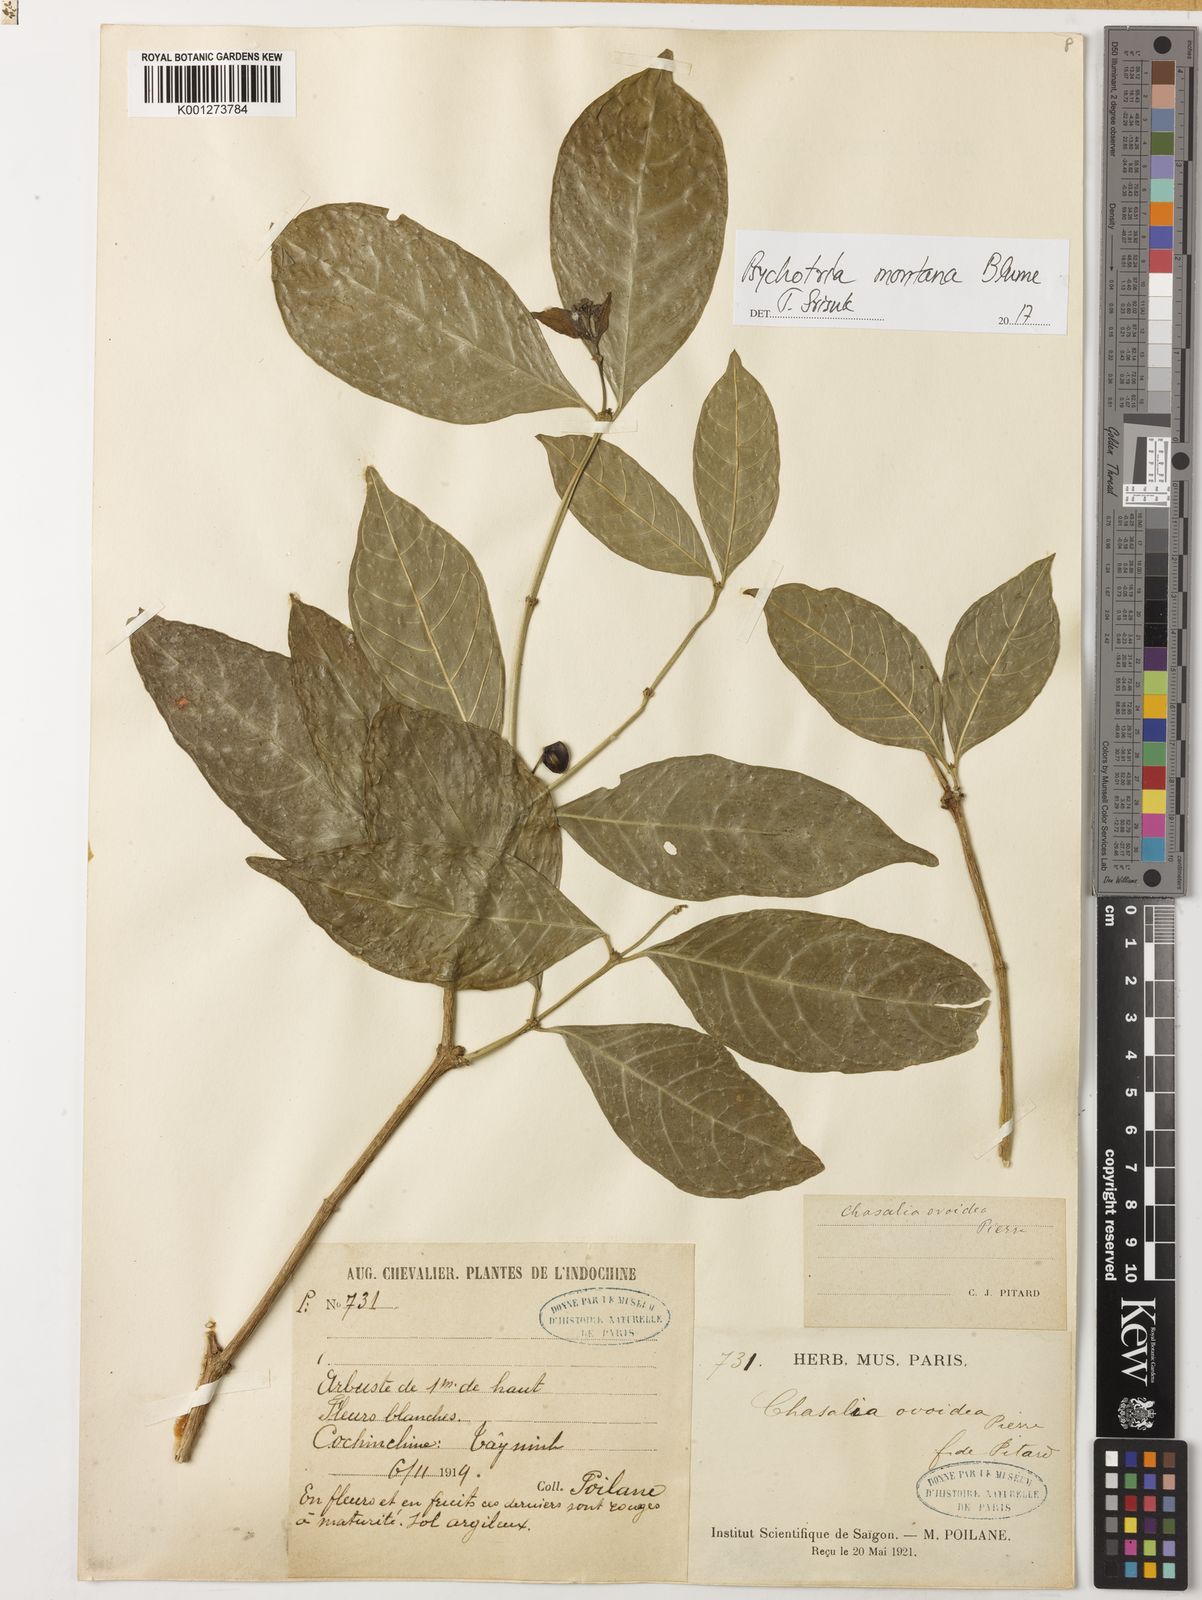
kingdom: Plantae
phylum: Tracheophyta
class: Magnoliopsida
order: Gentianales
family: Rubiaceae
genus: Eumachia
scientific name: Eumachia montana
